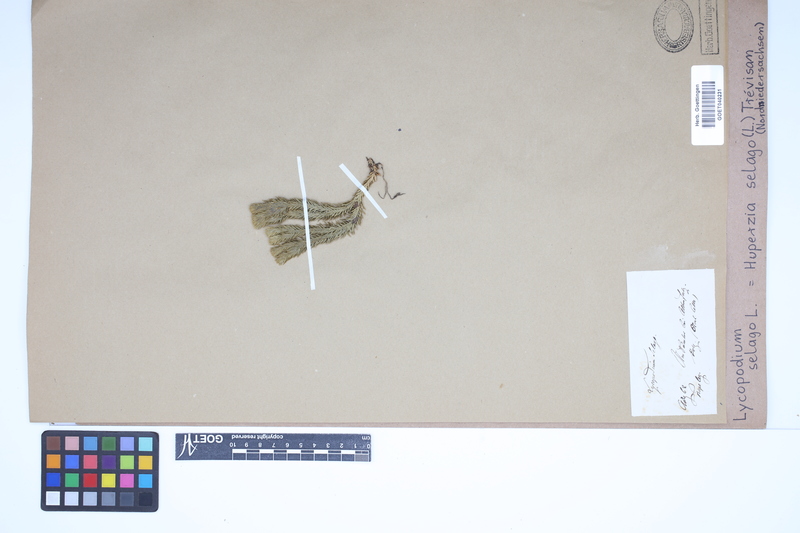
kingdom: Plantae
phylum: Tracheophyta
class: Lycopodiopsida
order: Lycopodiales
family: Lycopodiaceae
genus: Huperzia
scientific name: Huperzia selago
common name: Northern firmoss
